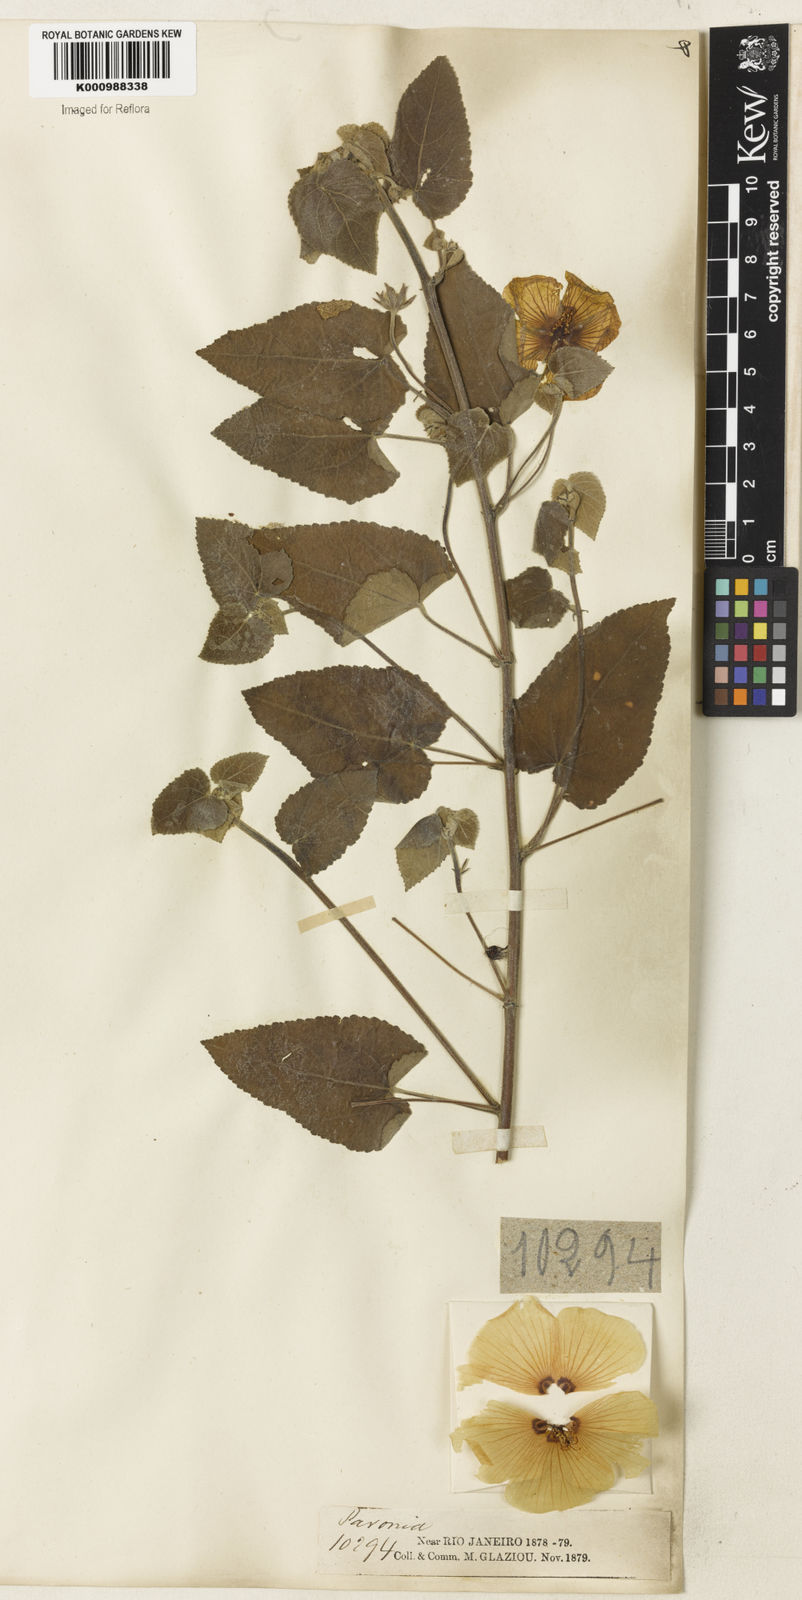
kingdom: Plantae
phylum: Tracheophyta
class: Magnoliopsida
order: Malvales
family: Malvaceae
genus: Pavonia
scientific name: Pavonia sidifolia
